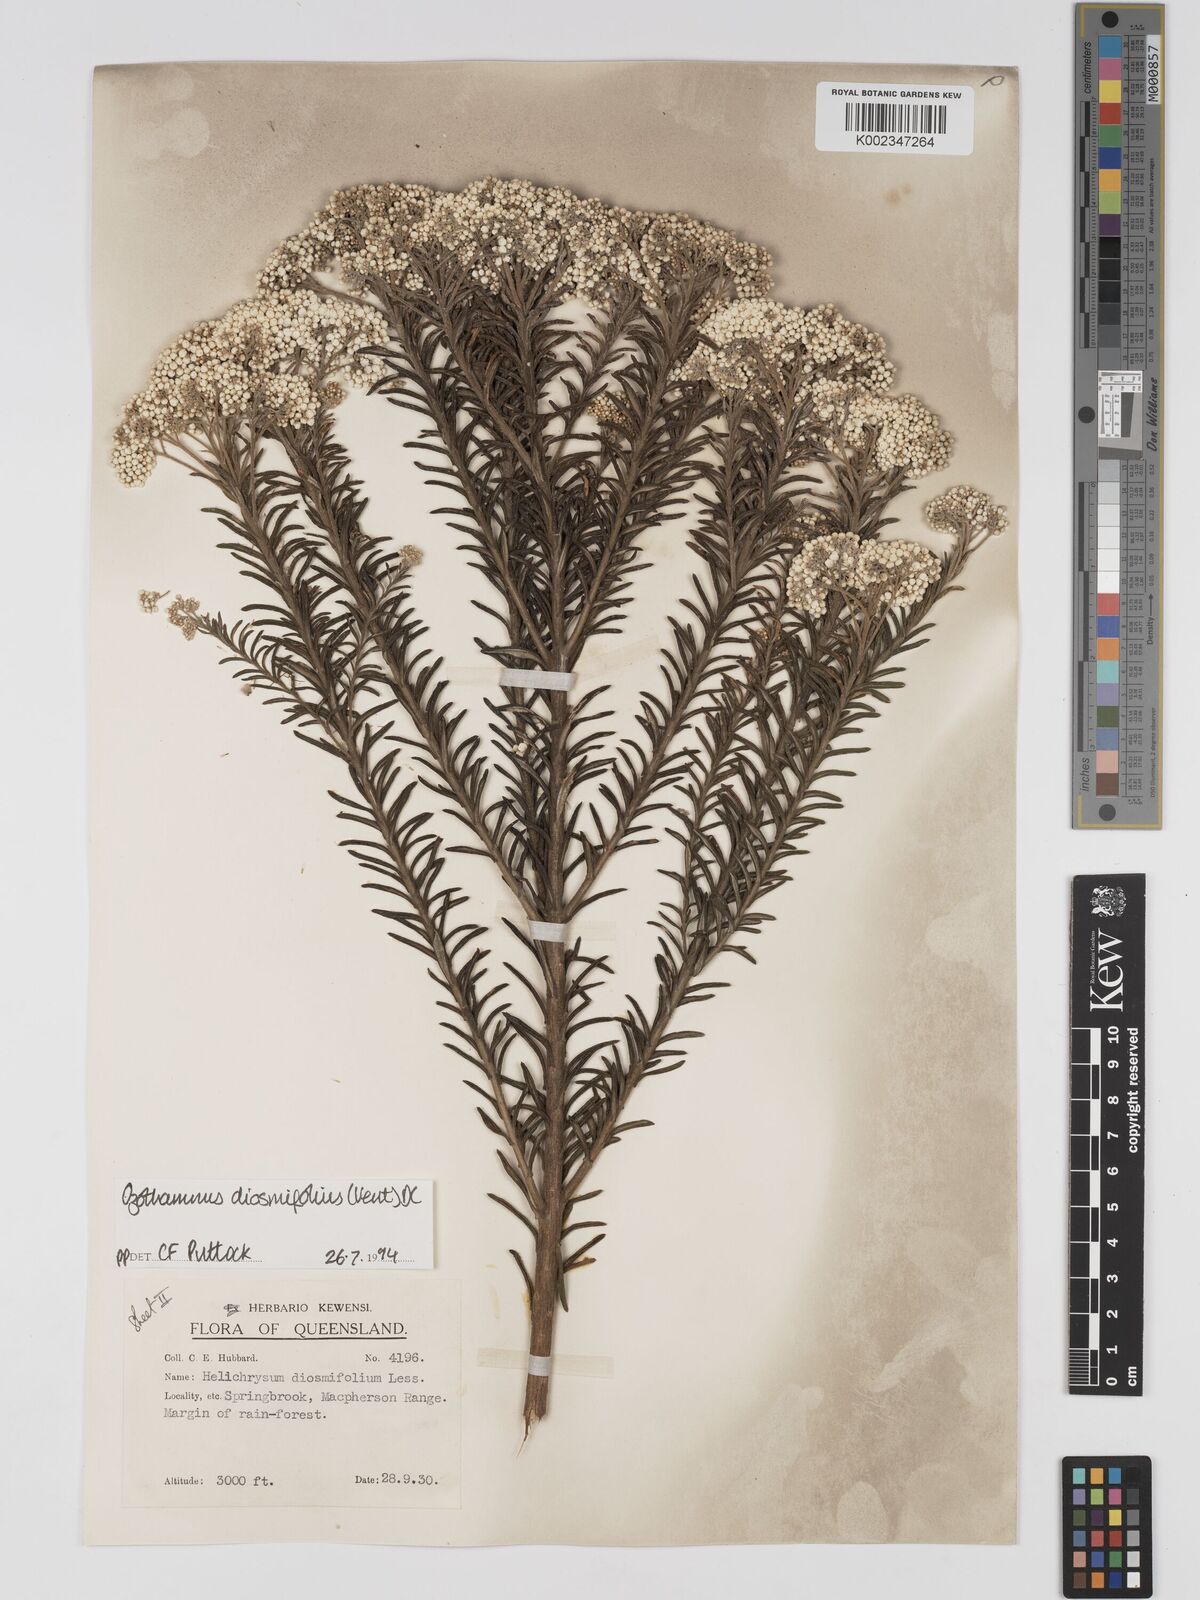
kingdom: Plantae
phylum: Tracheophyta
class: Magnoliopsida
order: Asterales
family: Asteraceae
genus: Ozothamnus
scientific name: Ozothamnus diosmifolius
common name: White-dogwood
